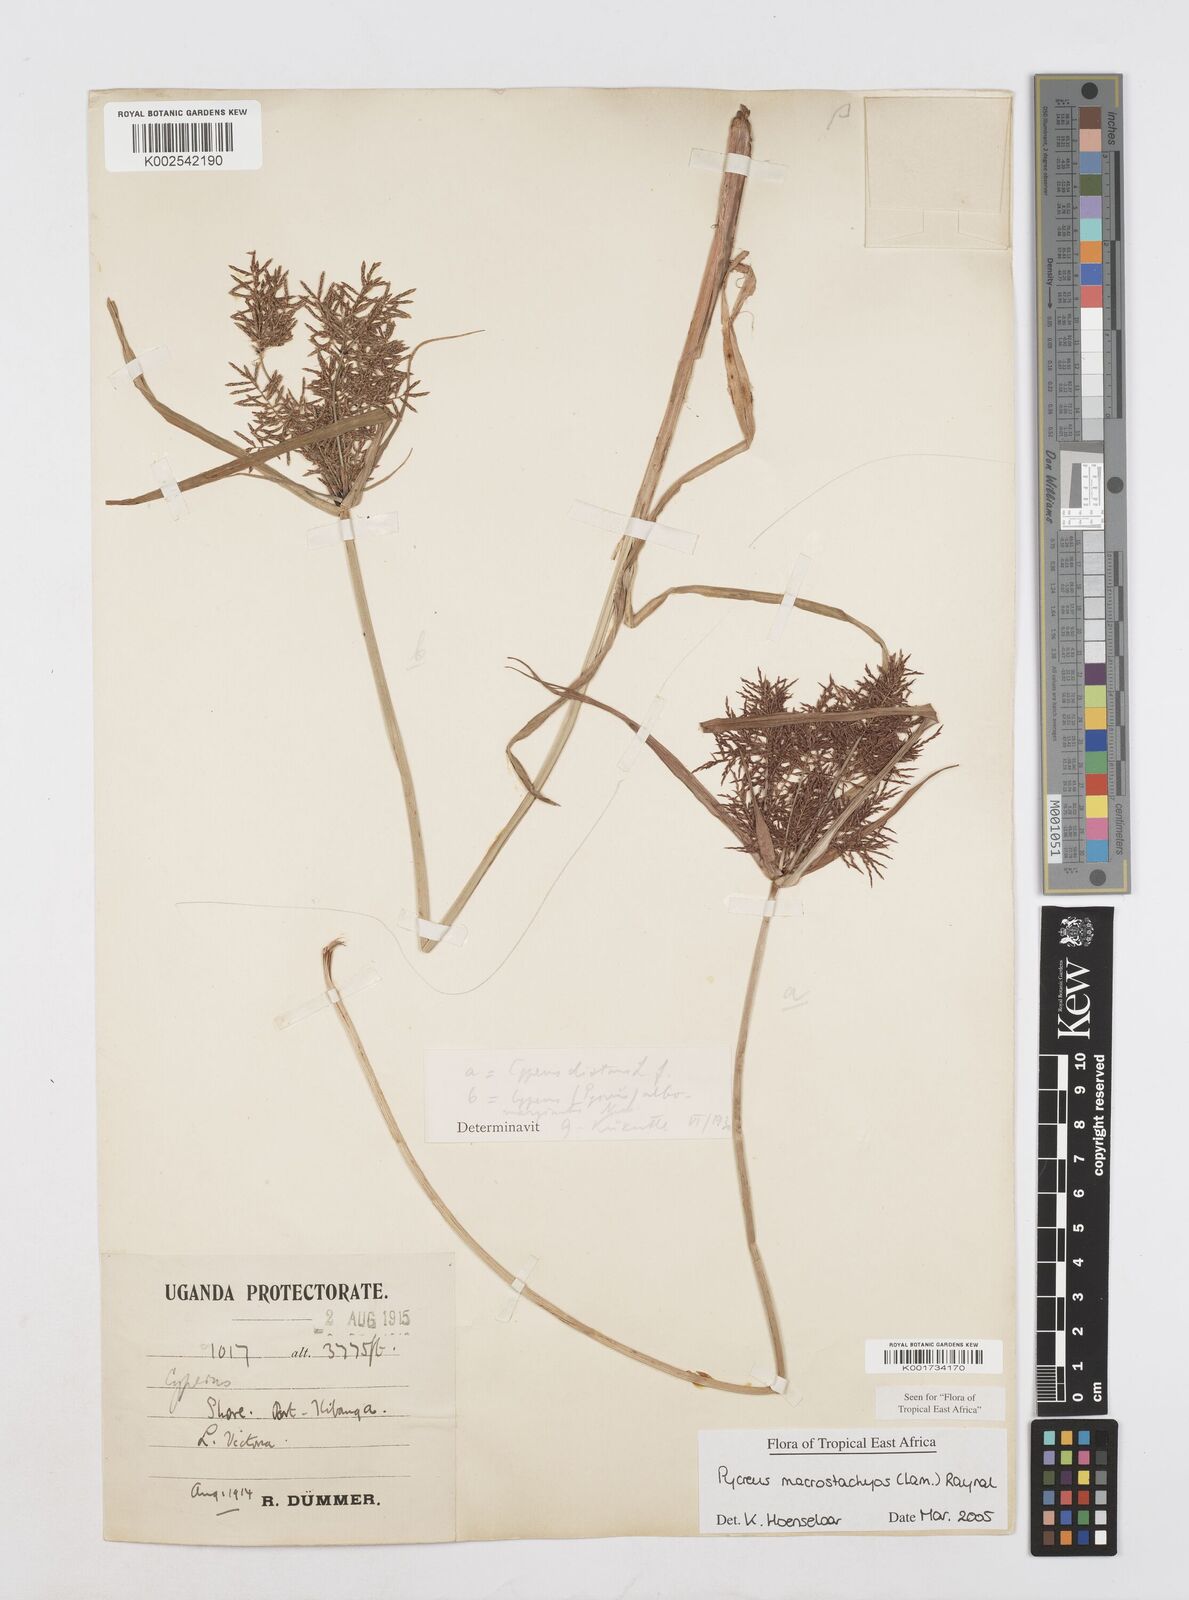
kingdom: Plantae
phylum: Tracheophyta
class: Liliopsida
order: Poales
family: Cyperaceae
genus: Cyperus
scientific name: Cyperus macrostachyos
